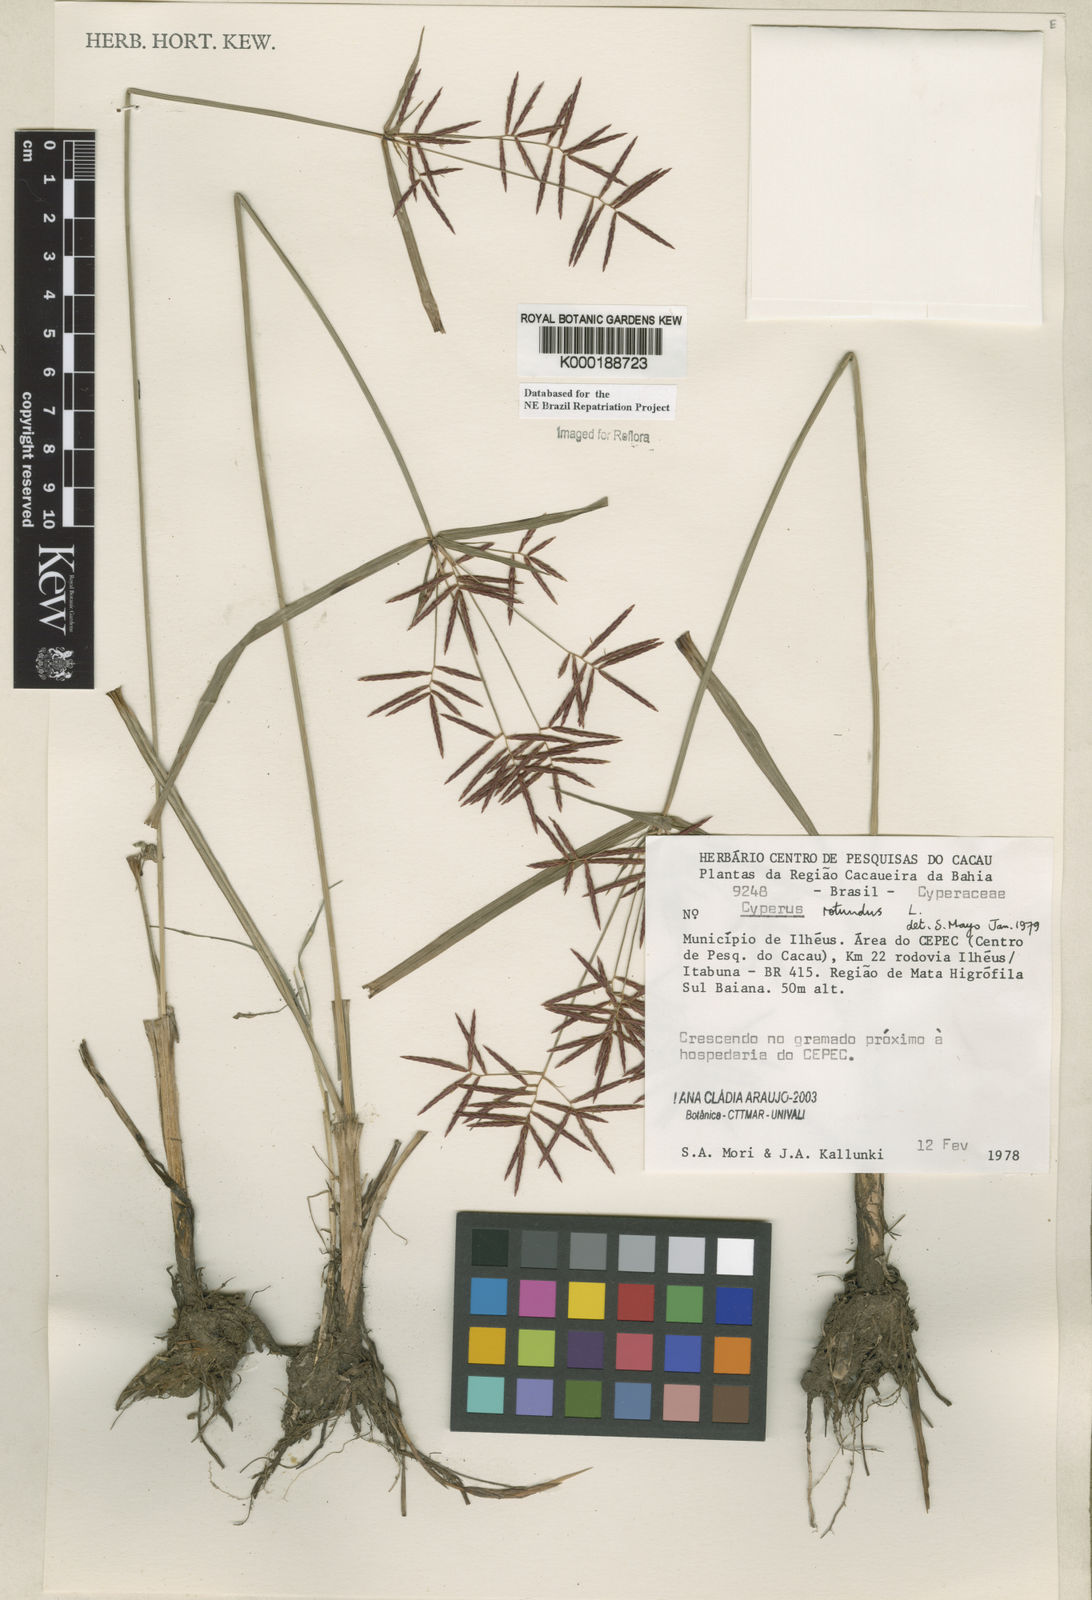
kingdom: Plantae
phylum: Tracheophyta
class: Liliopsida
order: Poales
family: Cyperaceae
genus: Cyperus
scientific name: Cyperus rotundus
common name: Nutgrass
